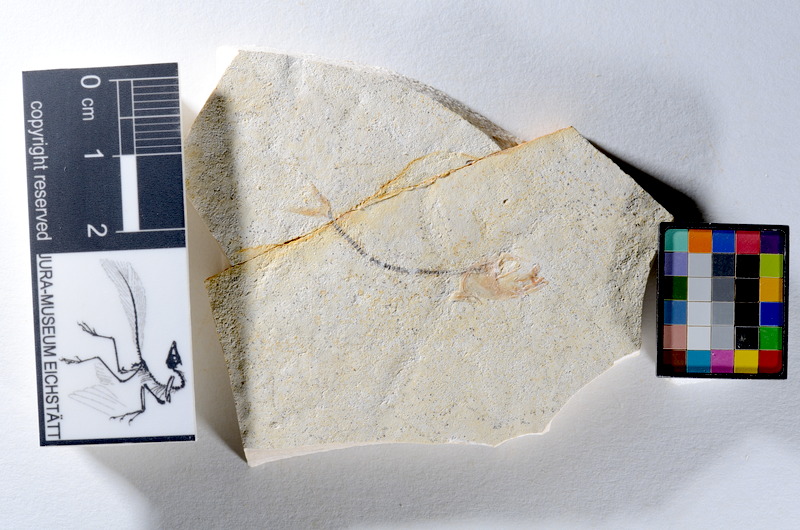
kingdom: Animalia
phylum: Chordata
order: Salmoniformes
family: Orthogonikleithridae
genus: Orthogonikleithrus
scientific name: Orthogonikleithrus hoelli
